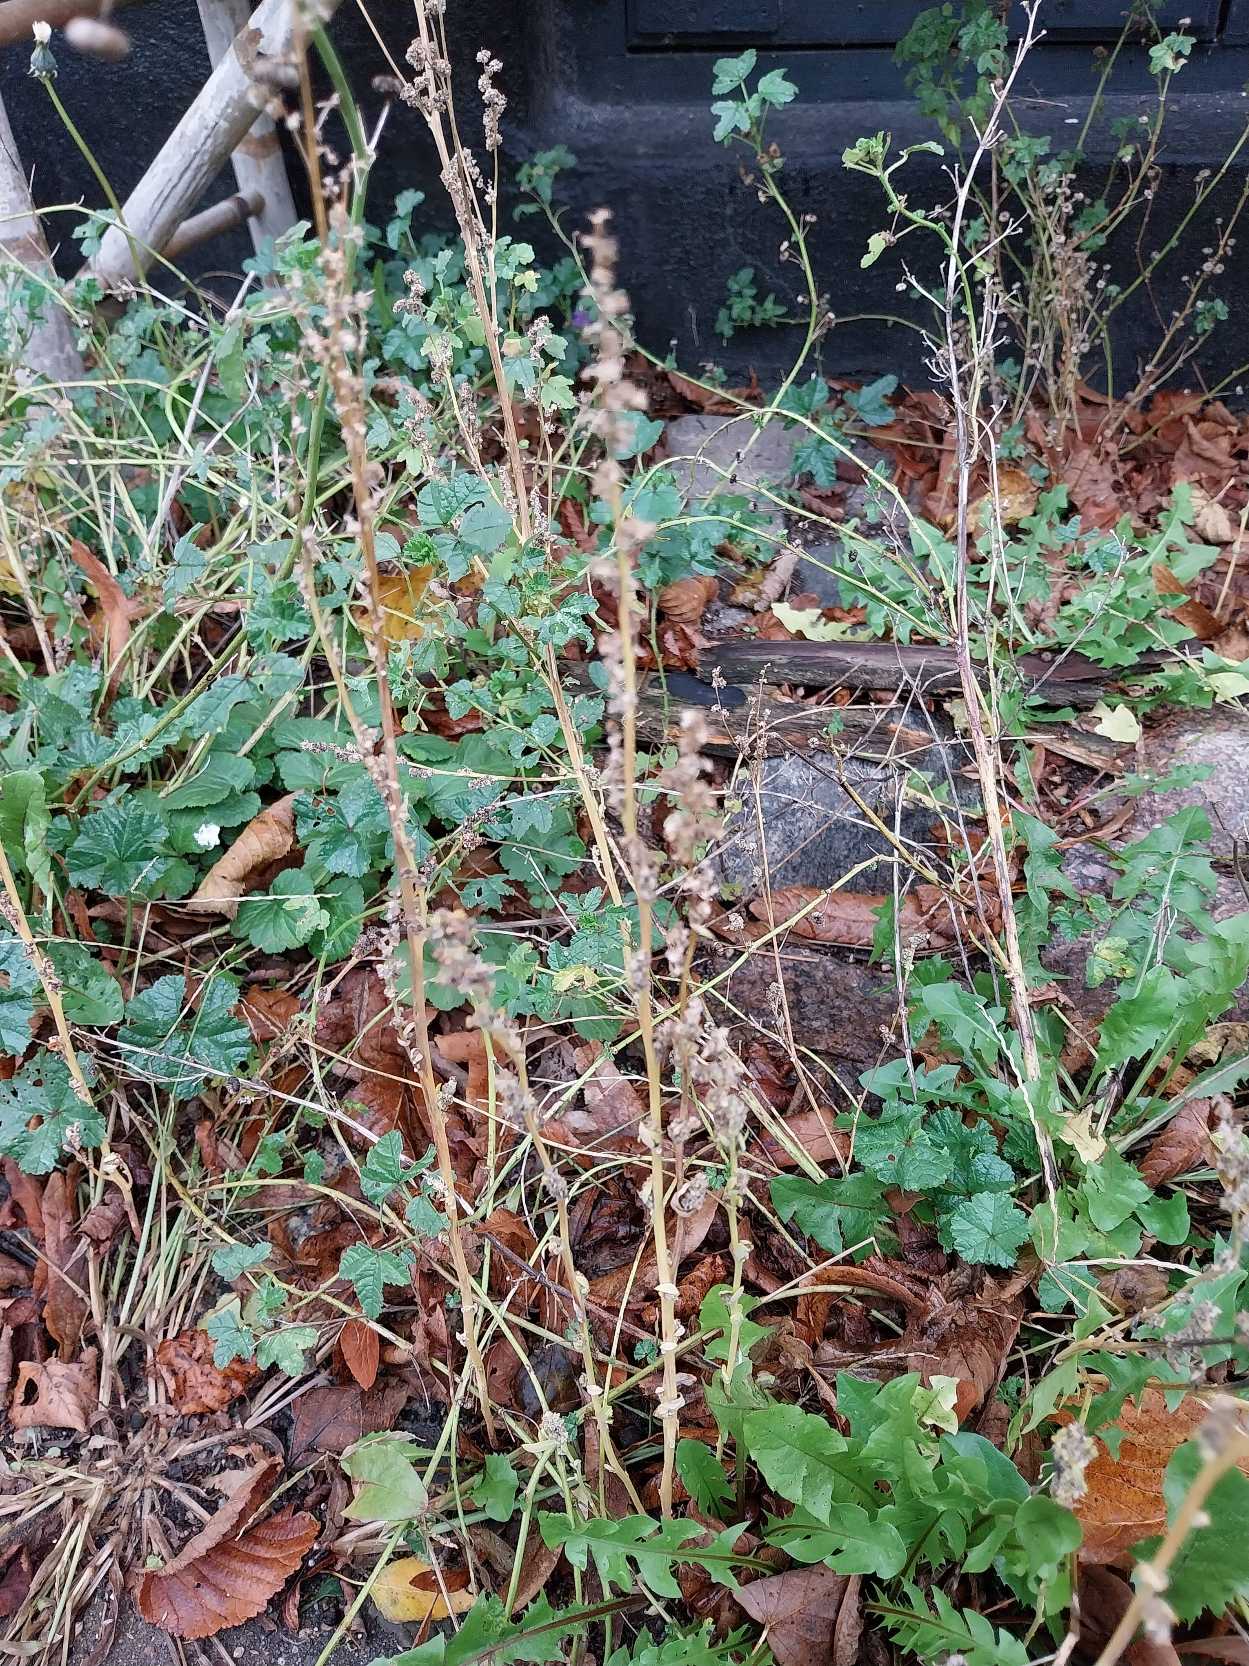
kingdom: Plantae
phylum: Tracheophyta
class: Magnoliopsida
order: Caryophyllales
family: Amaranthaceae
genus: Chenopodium
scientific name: Chenopodium album
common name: Hvidmelet gåsefod
